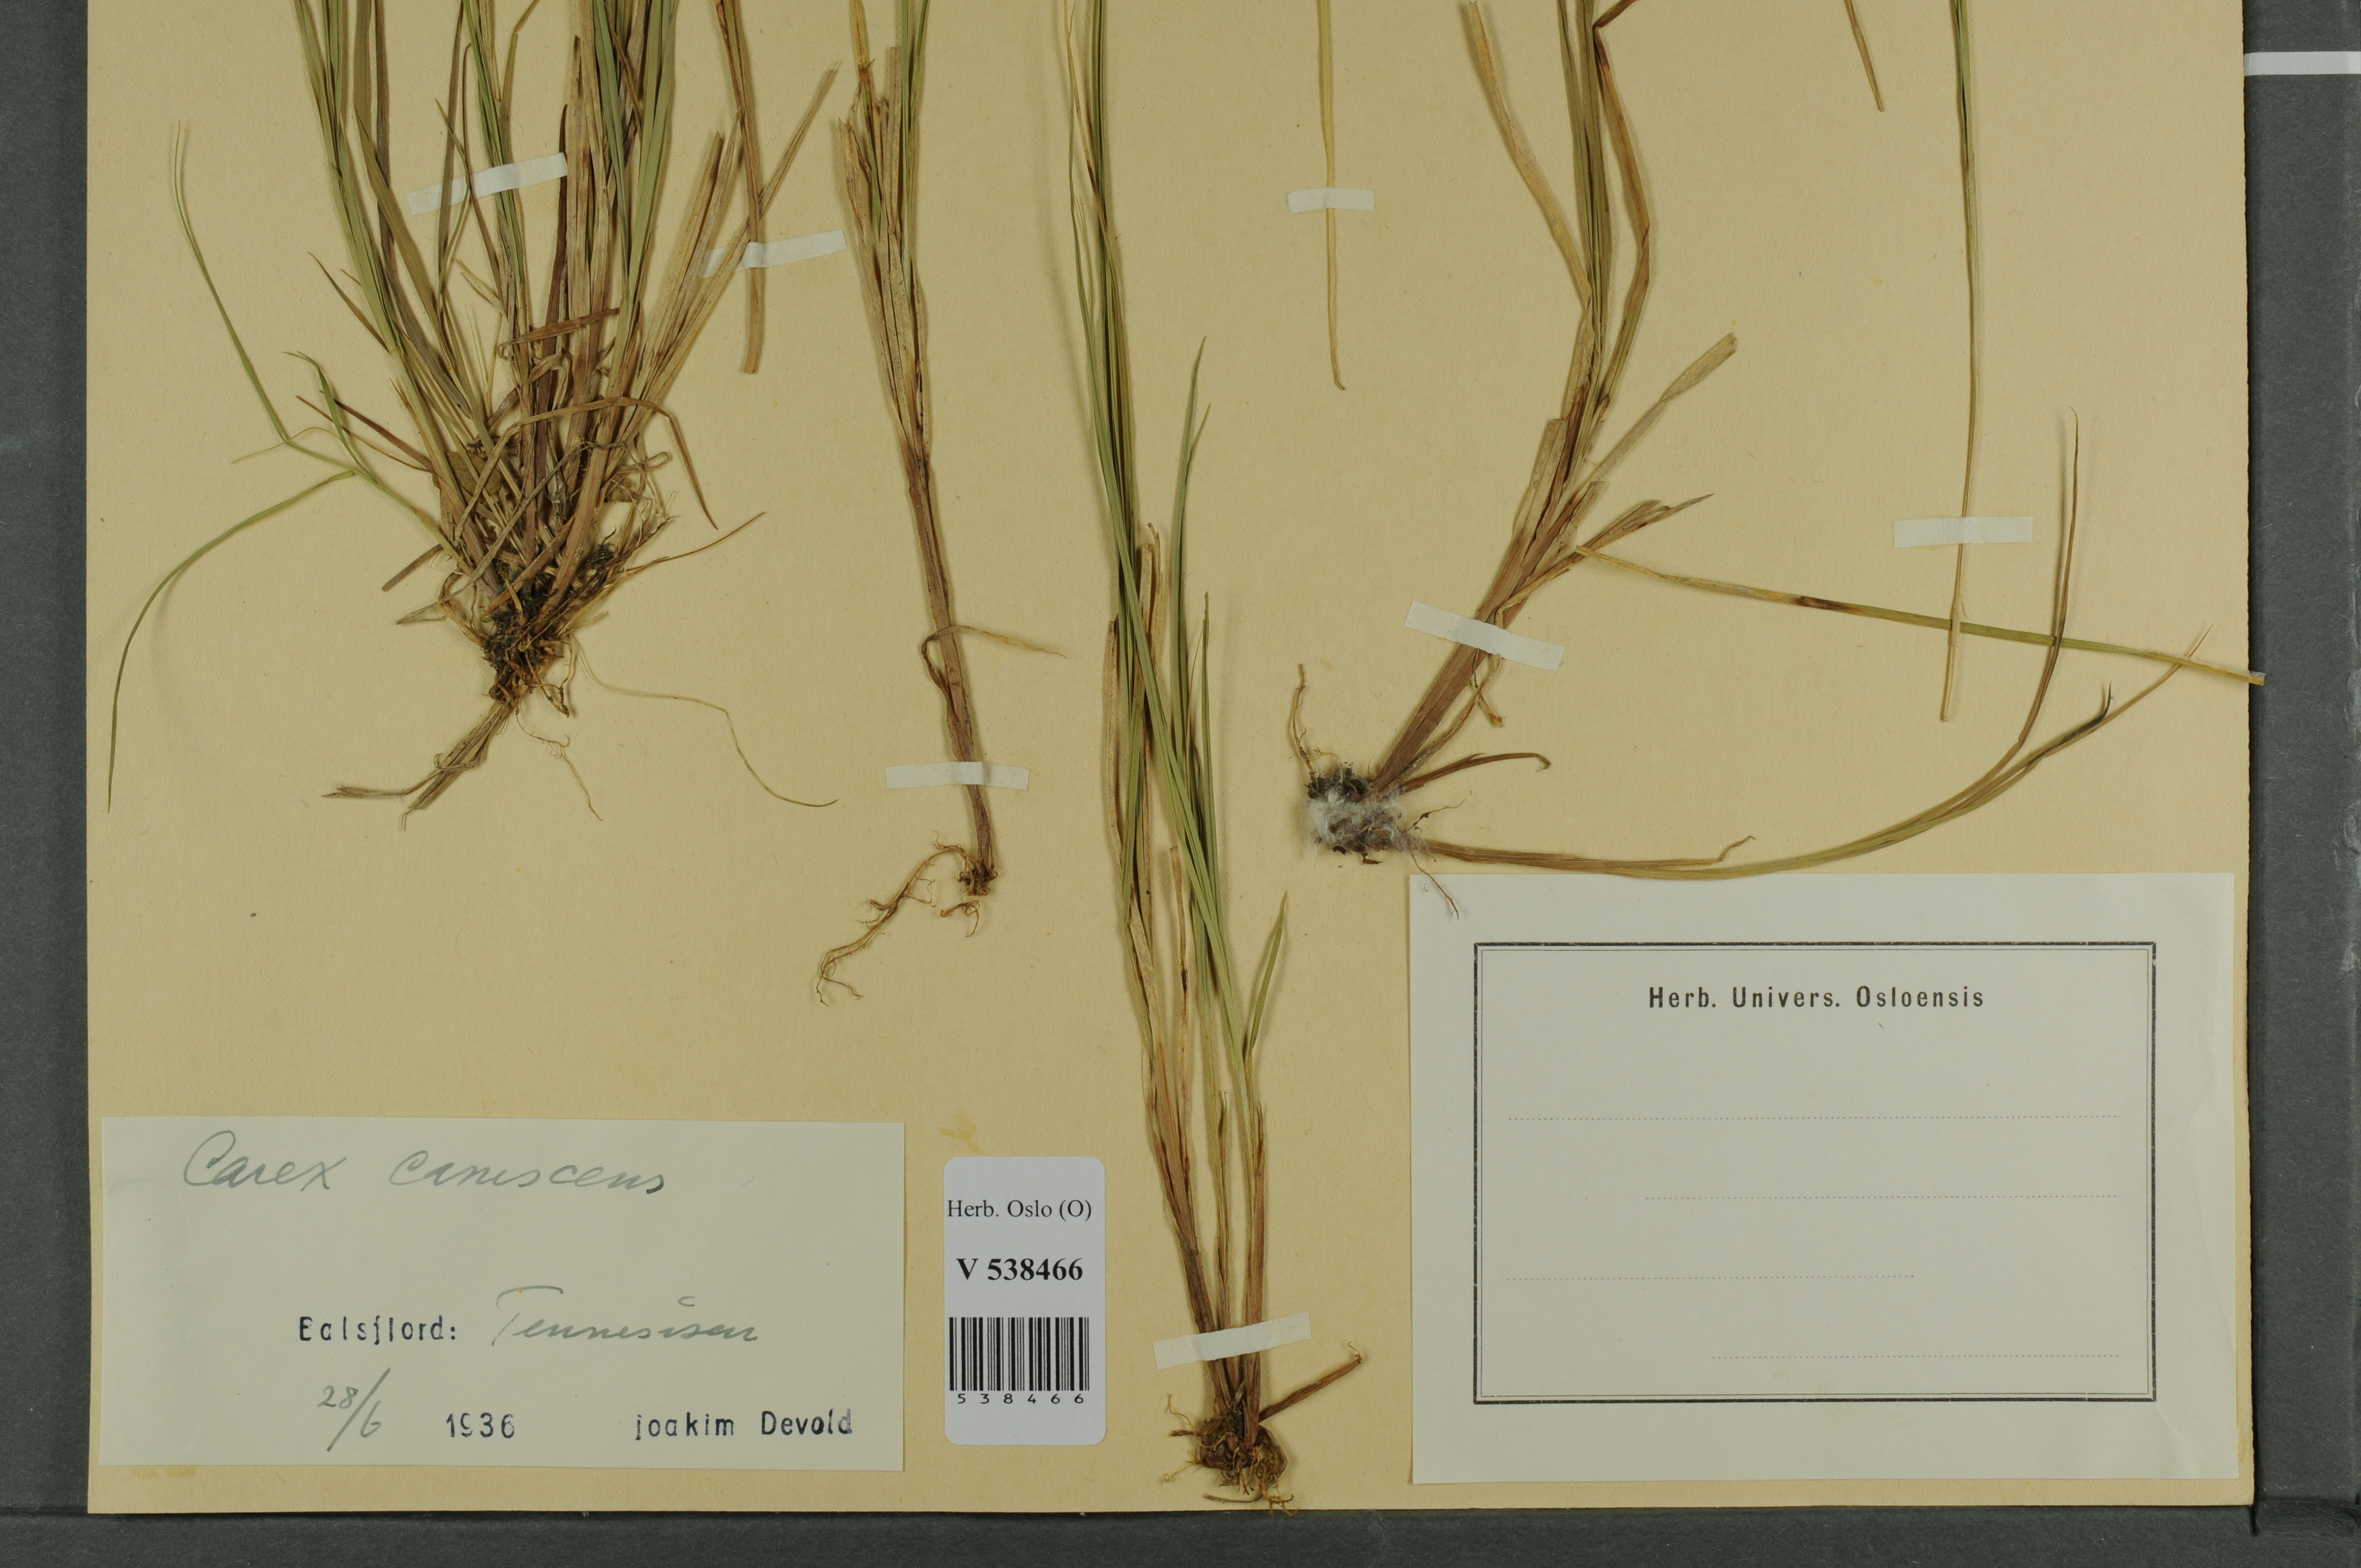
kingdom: Plantae
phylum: Tracheophyta
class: Liliopsida
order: Poales
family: Cyperaceae
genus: Carex
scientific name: Carex canescens
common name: White sedge
